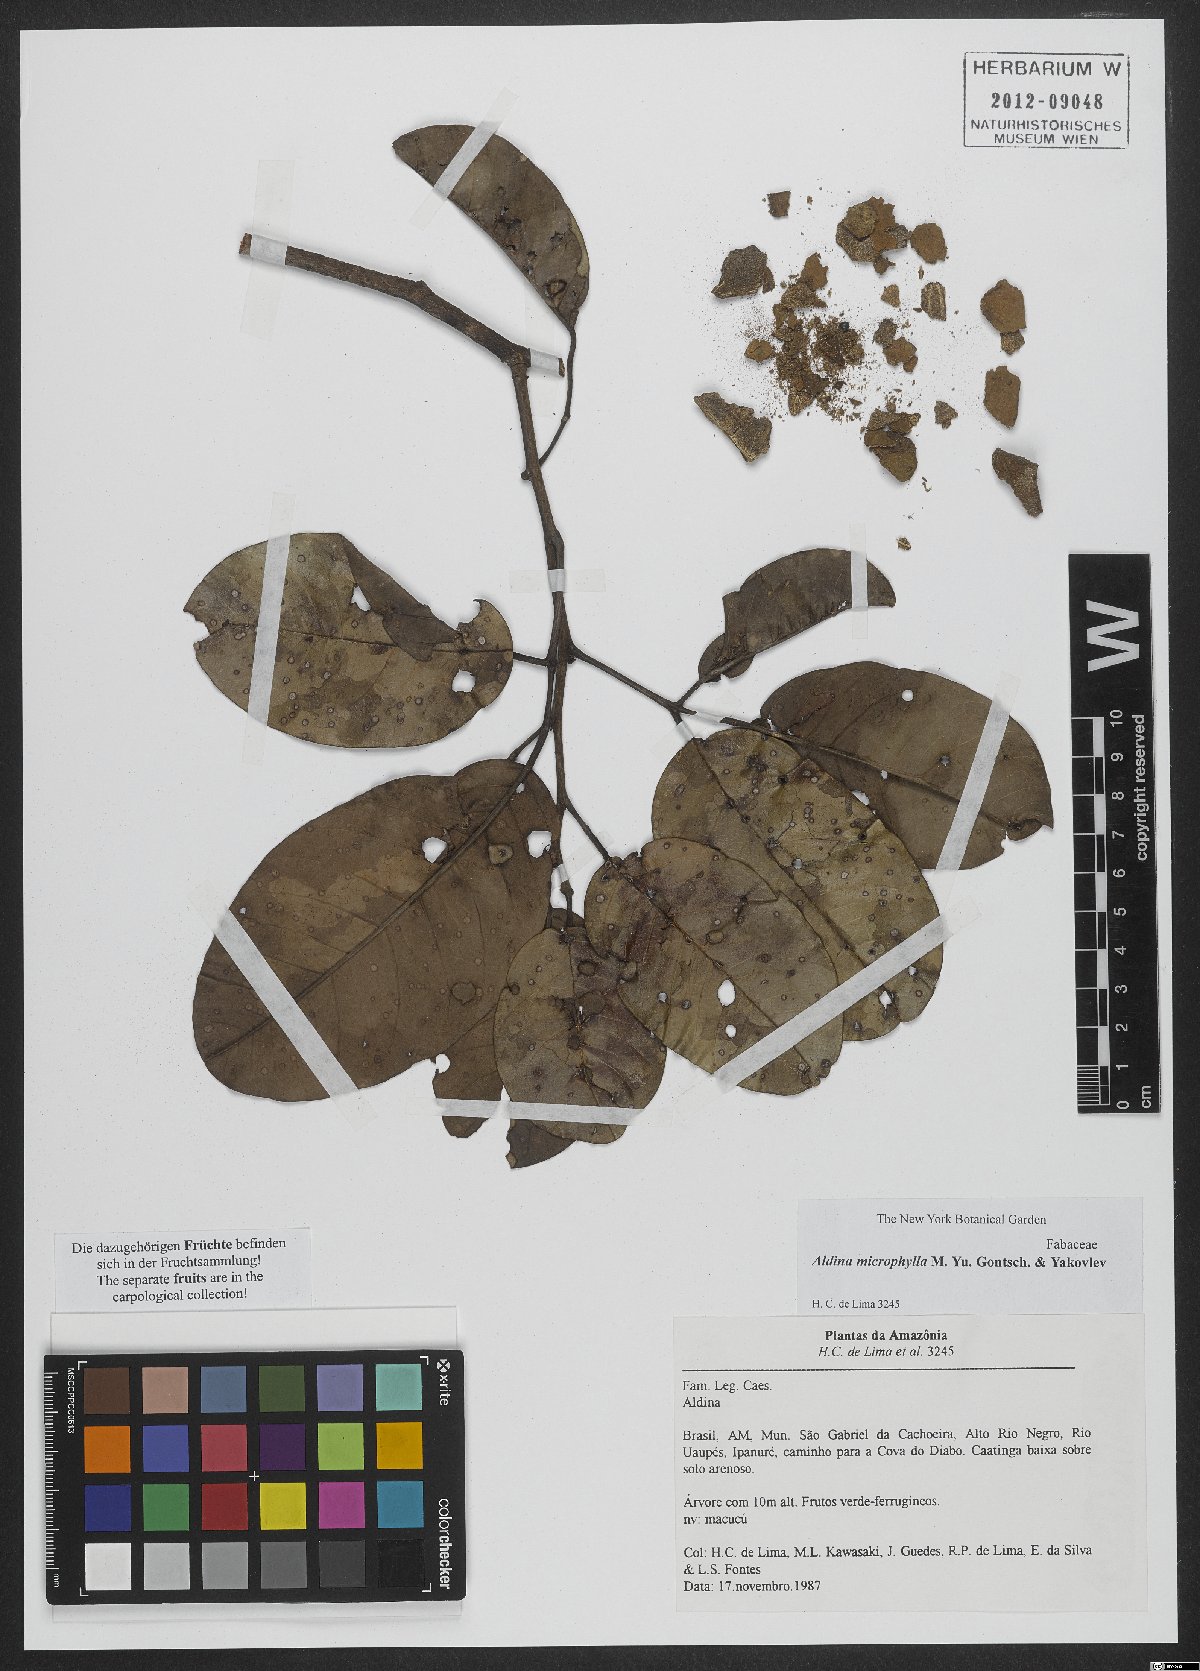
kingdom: Plantae
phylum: Tracheophyta
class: Magnoliopsida
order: Fabales
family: Fabaceae
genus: Aldina
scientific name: Aldina microphylla
